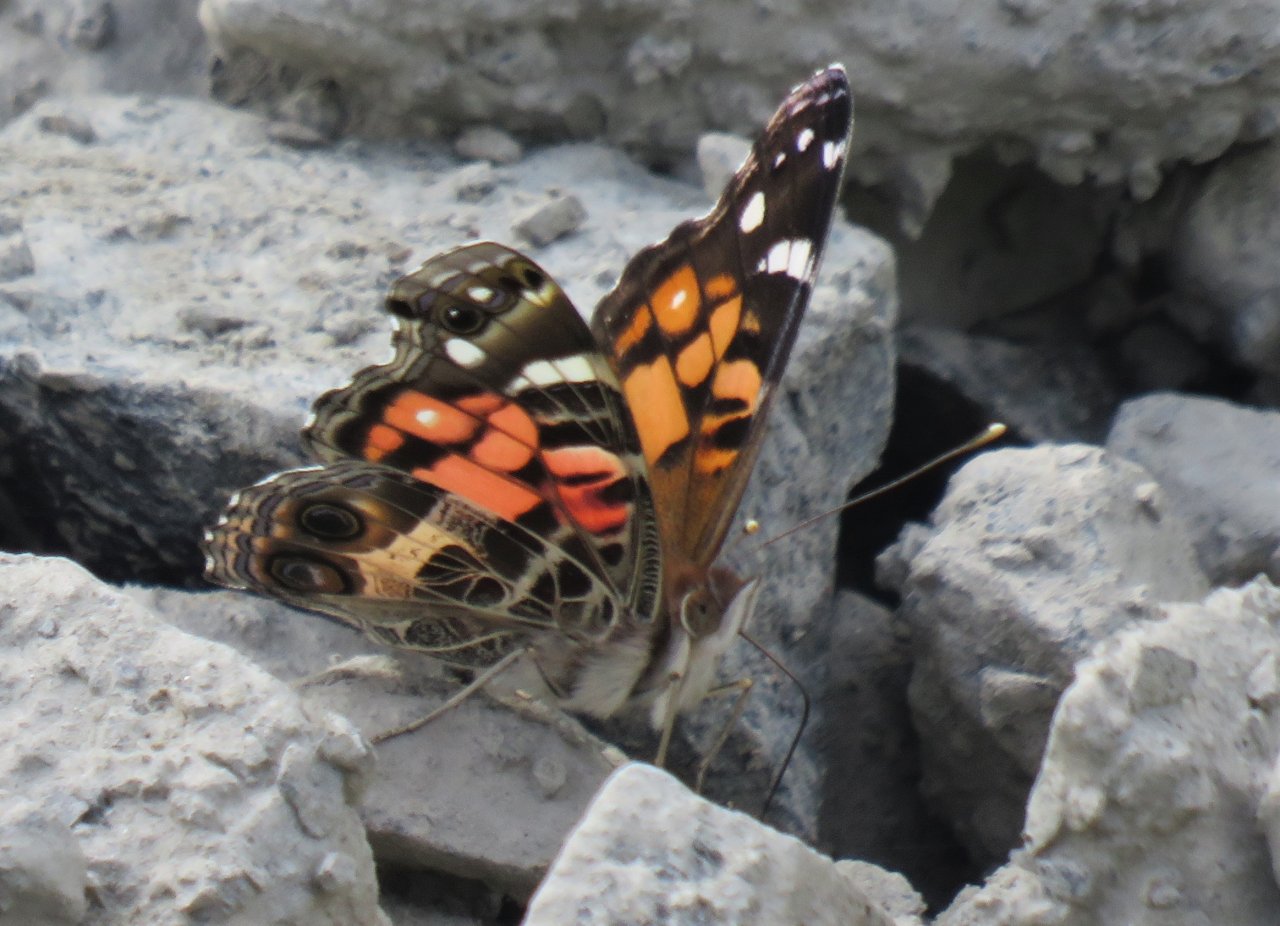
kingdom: Animalia
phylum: Arthropoda
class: Insecta
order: Lepidoptera
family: Nymphalidae
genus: Vanessa
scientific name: Vanessa virginiensis
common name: American Lady
